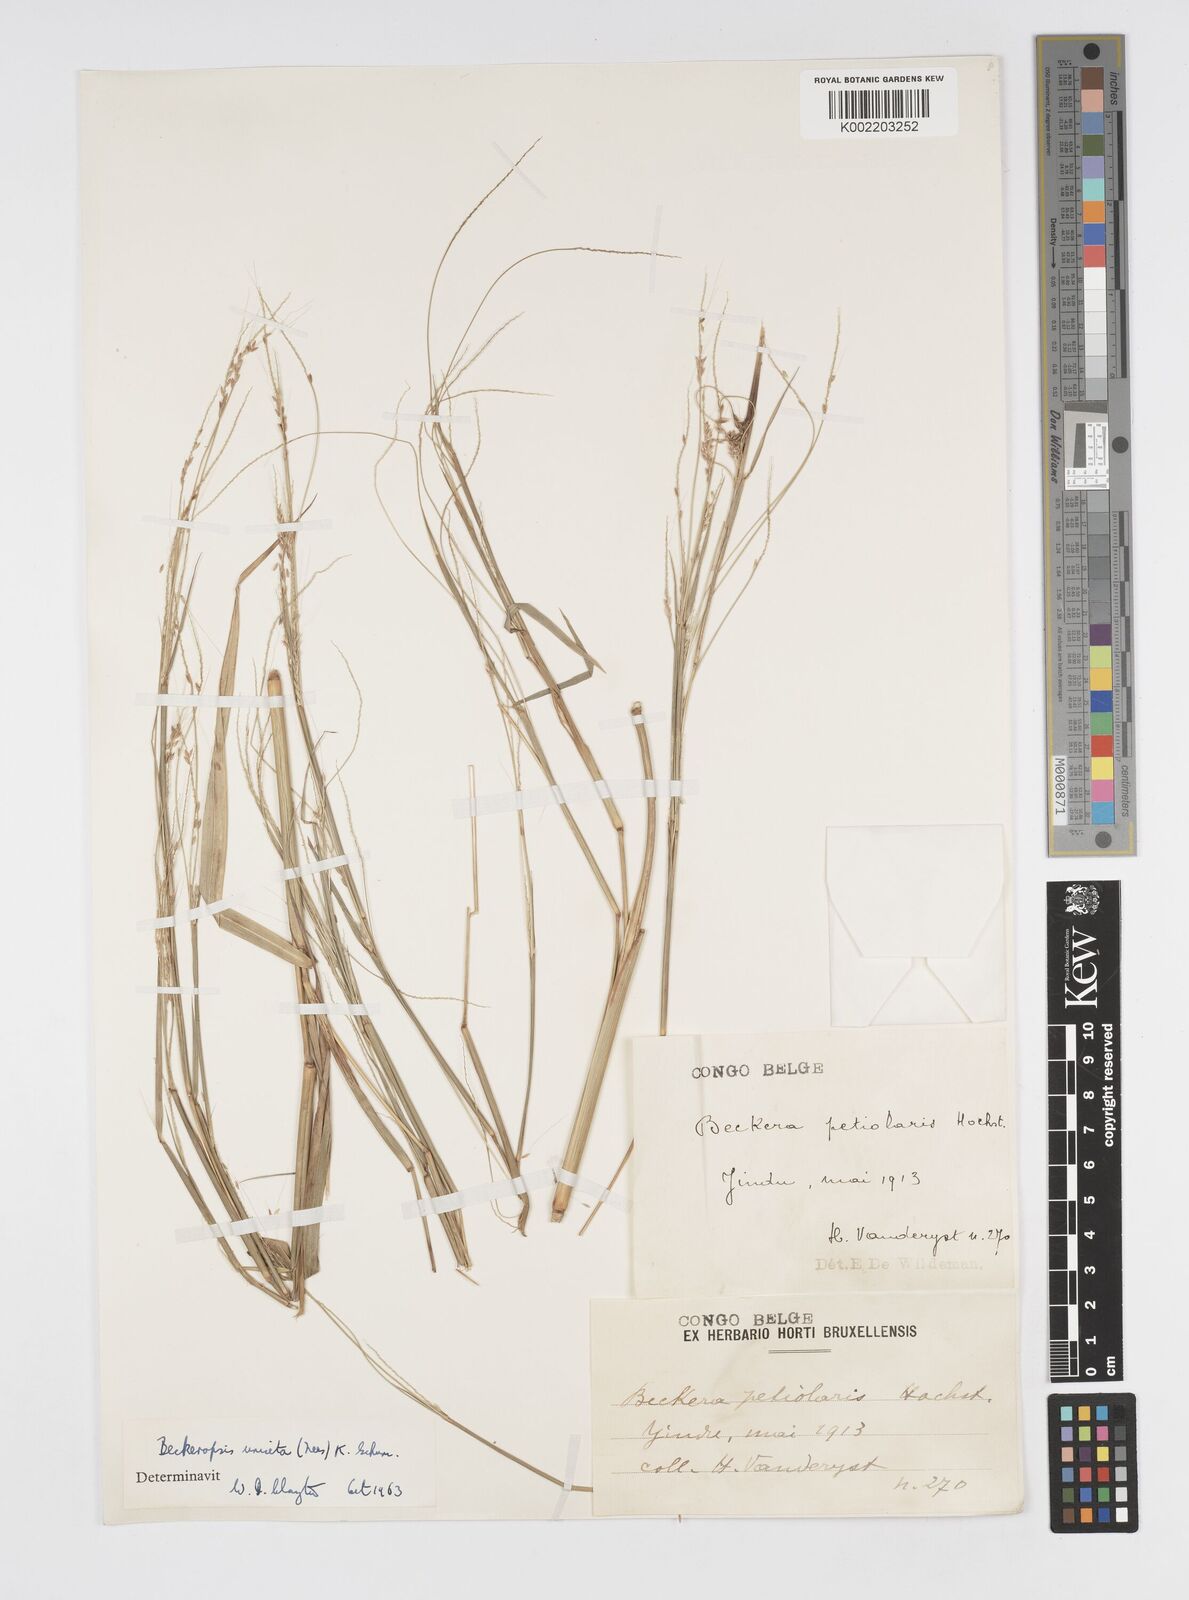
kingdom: Plantae
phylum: Tracheophyta
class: Liliopsida
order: Poales
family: Poaceae
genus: Cenchrus
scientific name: Cenchrus unisetus
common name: Natal grass
